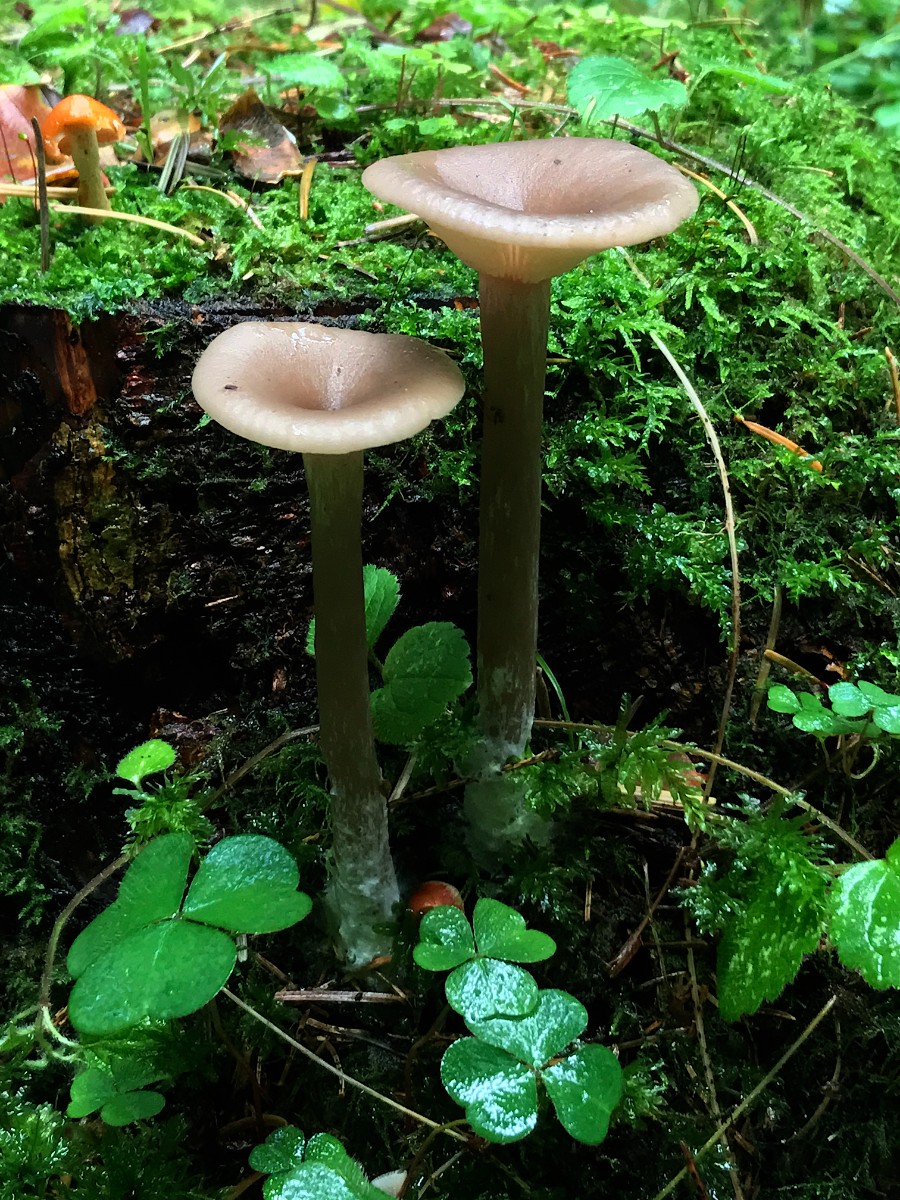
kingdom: Fungi
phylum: Basidiomycota
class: Agaricomycetes
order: Agaricales
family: Pseudoclitocybaceae
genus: Pseudoclitocybe
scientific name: Pseudoclitocybe cyathiformis
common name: almindelig bægertragthat
